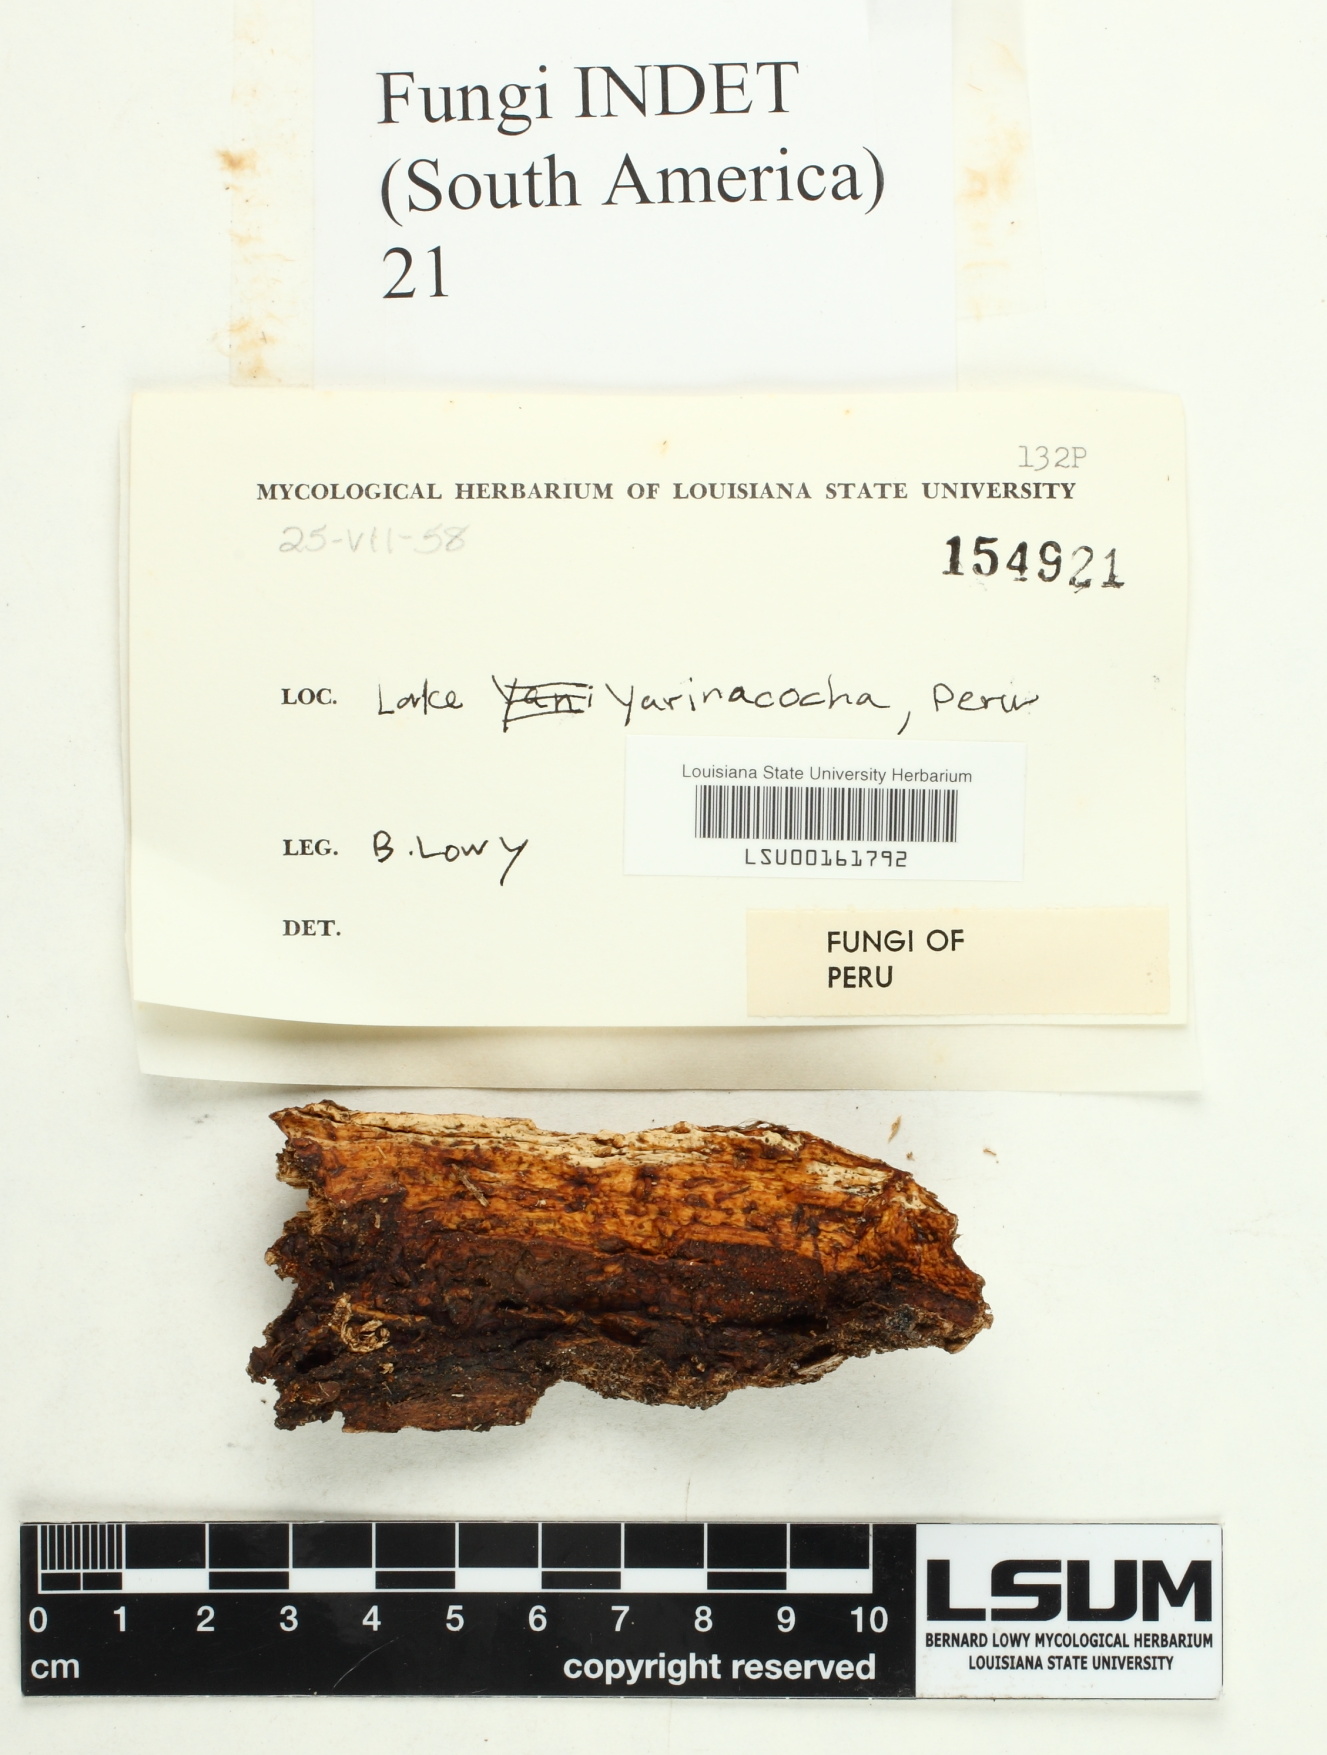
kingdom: Fungi
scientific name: Fungi
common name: Fungi
